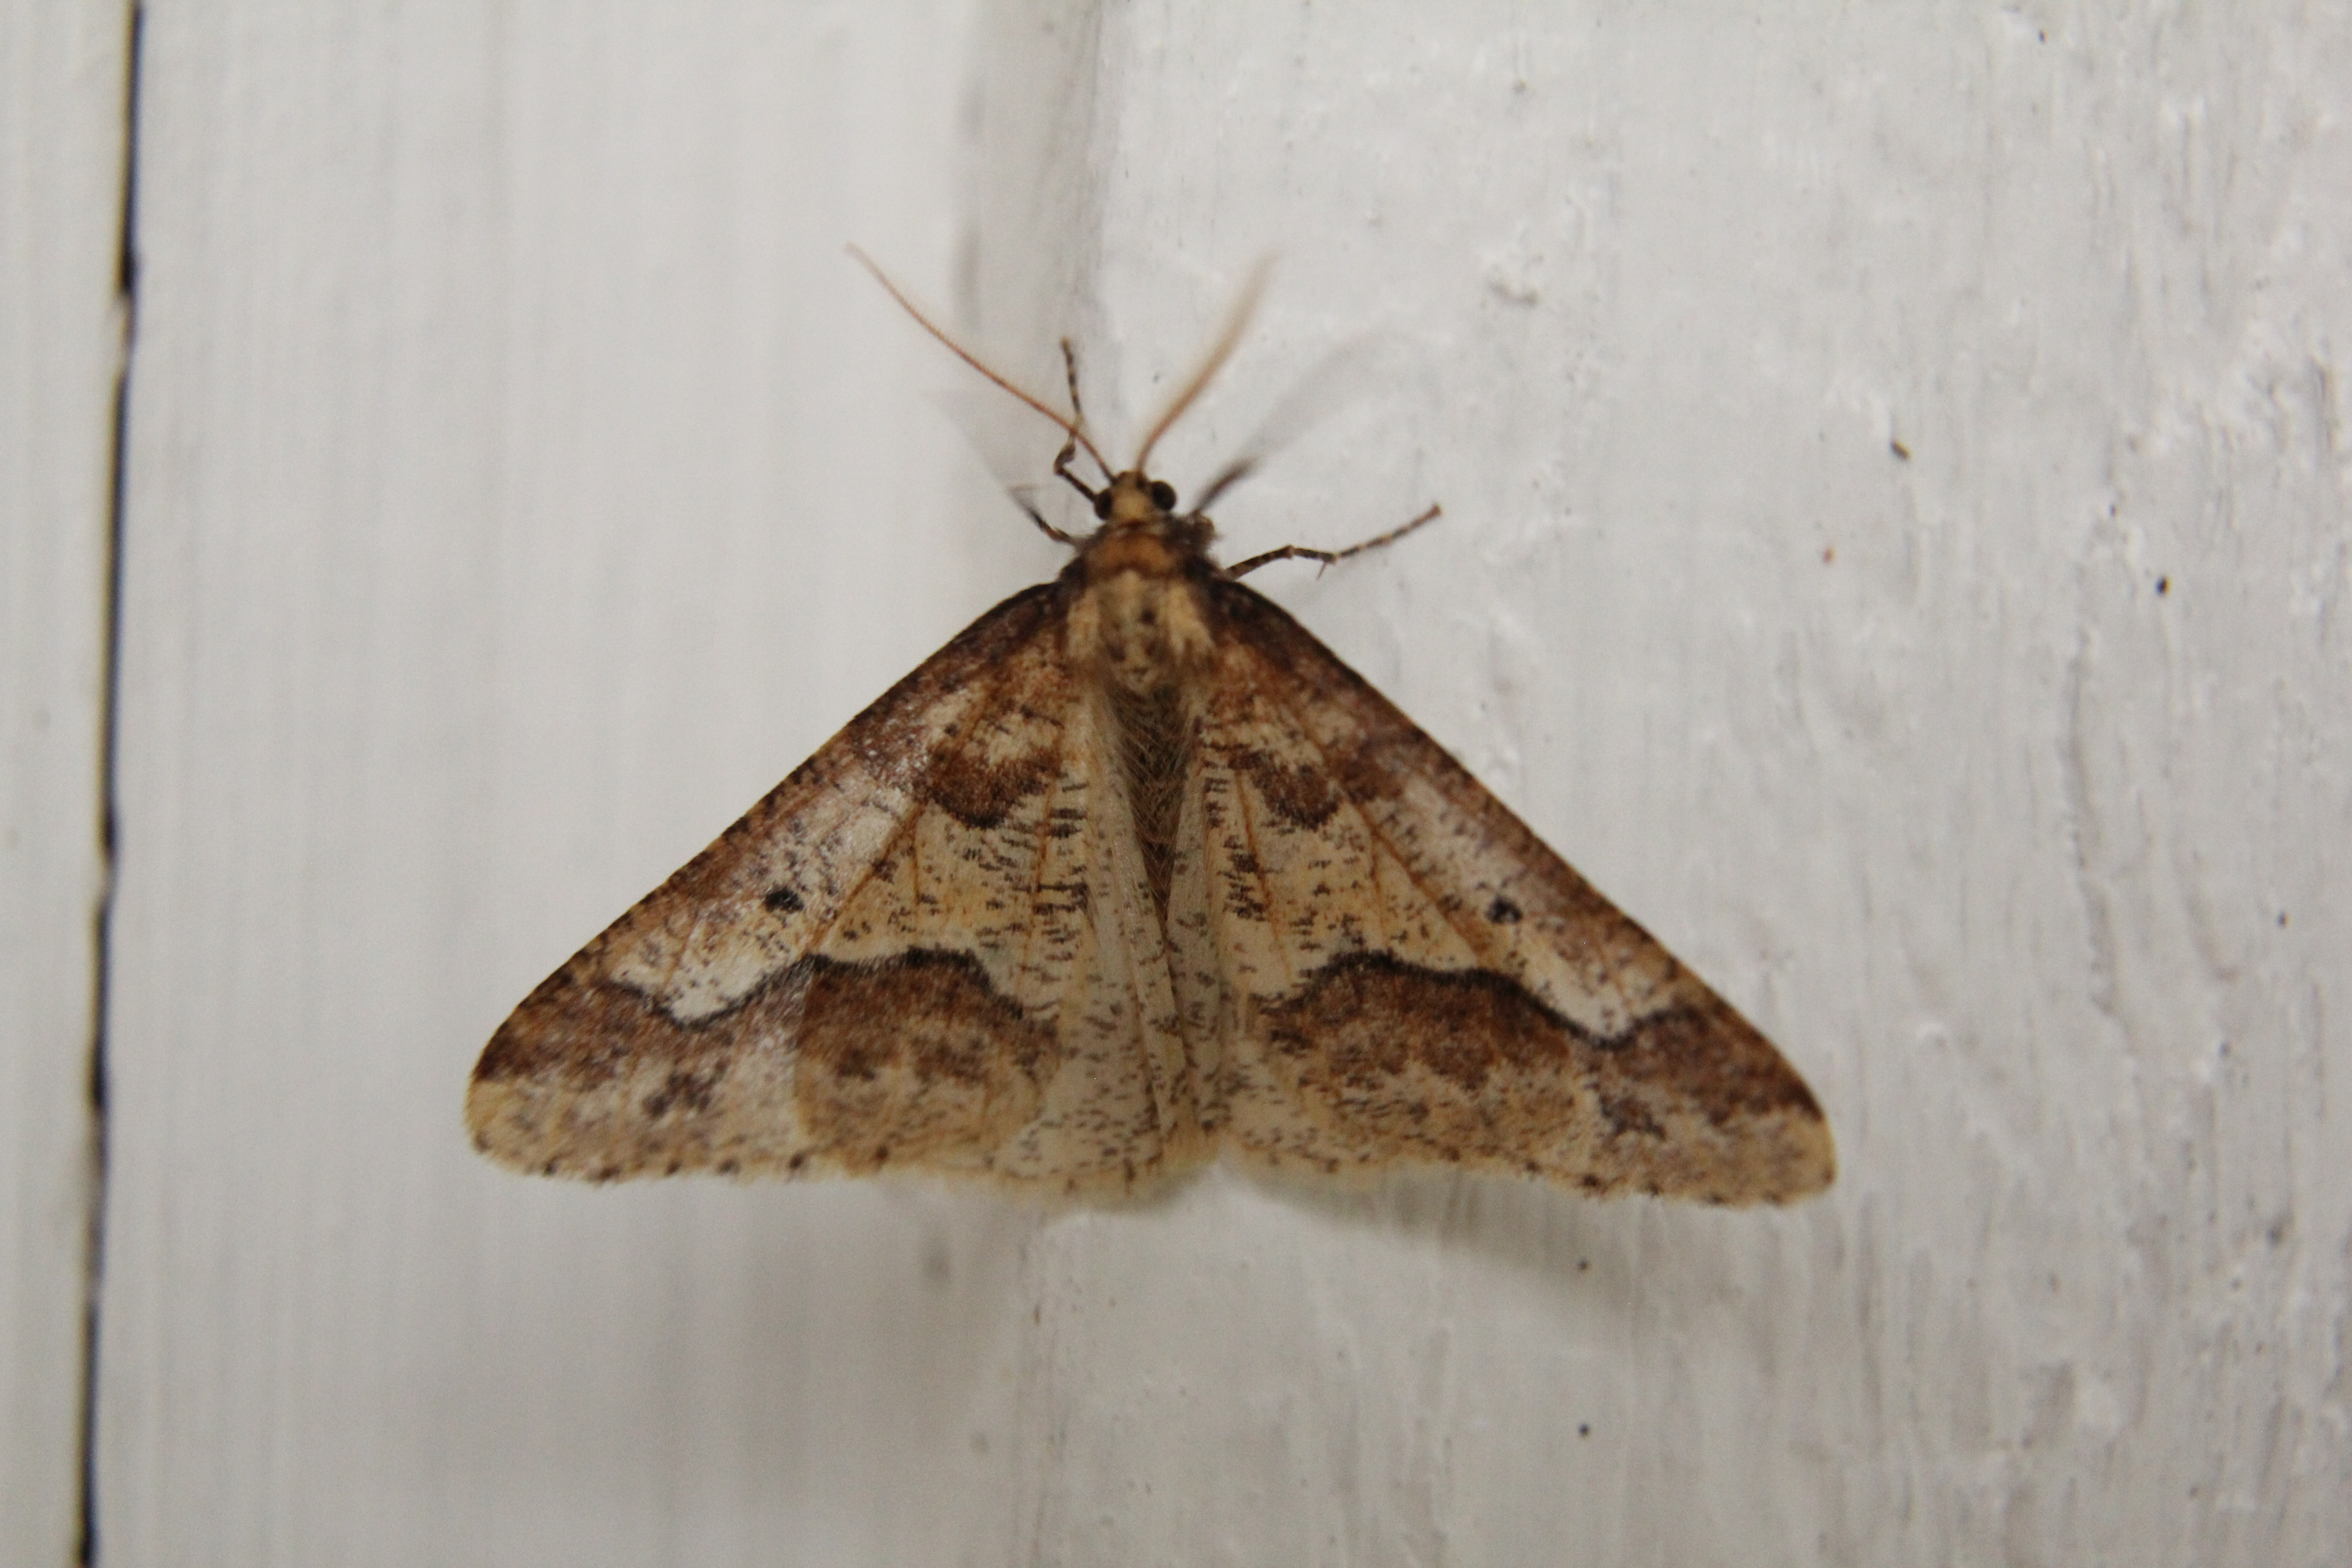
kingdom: Animalia
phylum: Arthropoda
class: Insecta
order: Lepidoptera
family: Geometridae
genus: Erannis
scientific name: Erannis defoliaria
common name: Mottled umber
